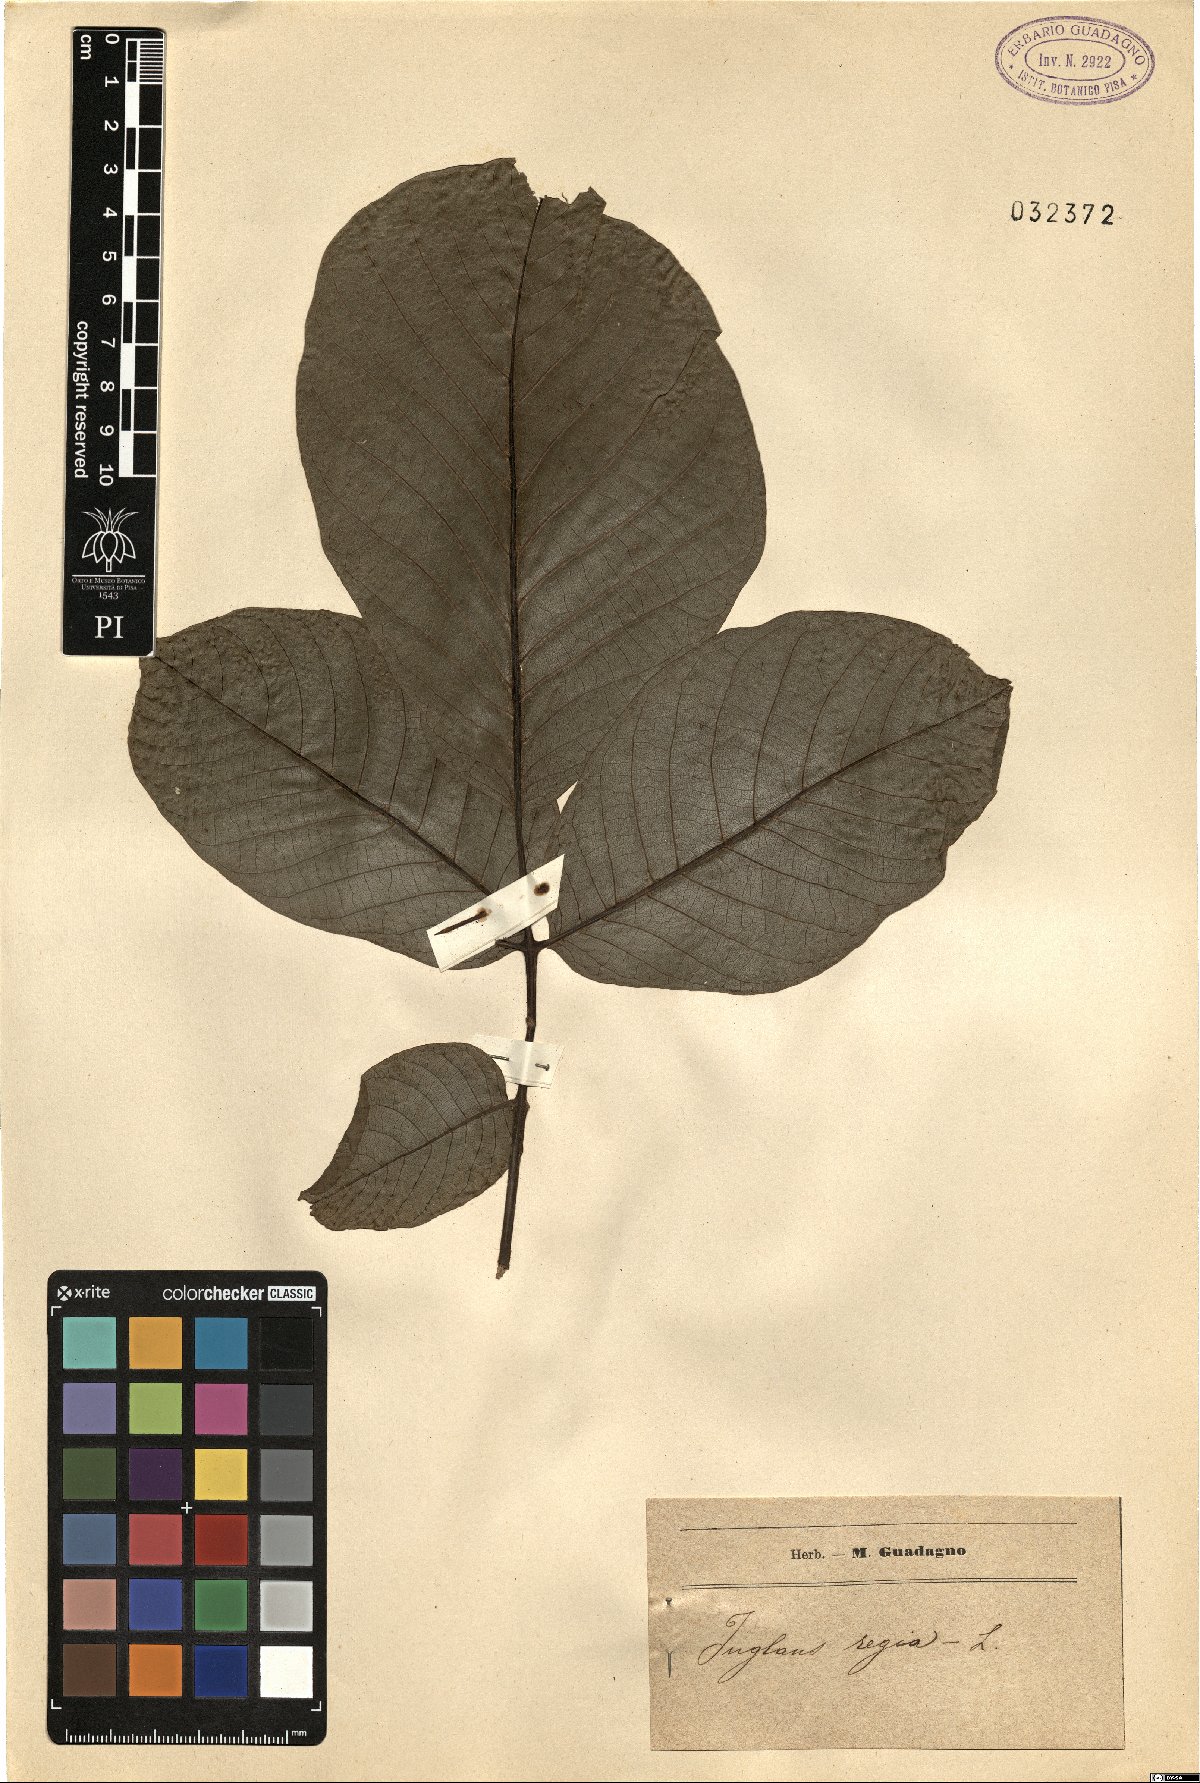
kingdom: Plantae
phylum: Tracheophyta
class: Magnoliopsida
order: Fagales
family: Juglandaceae
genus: Juglans
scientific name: Juglans regia
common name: Walnut
